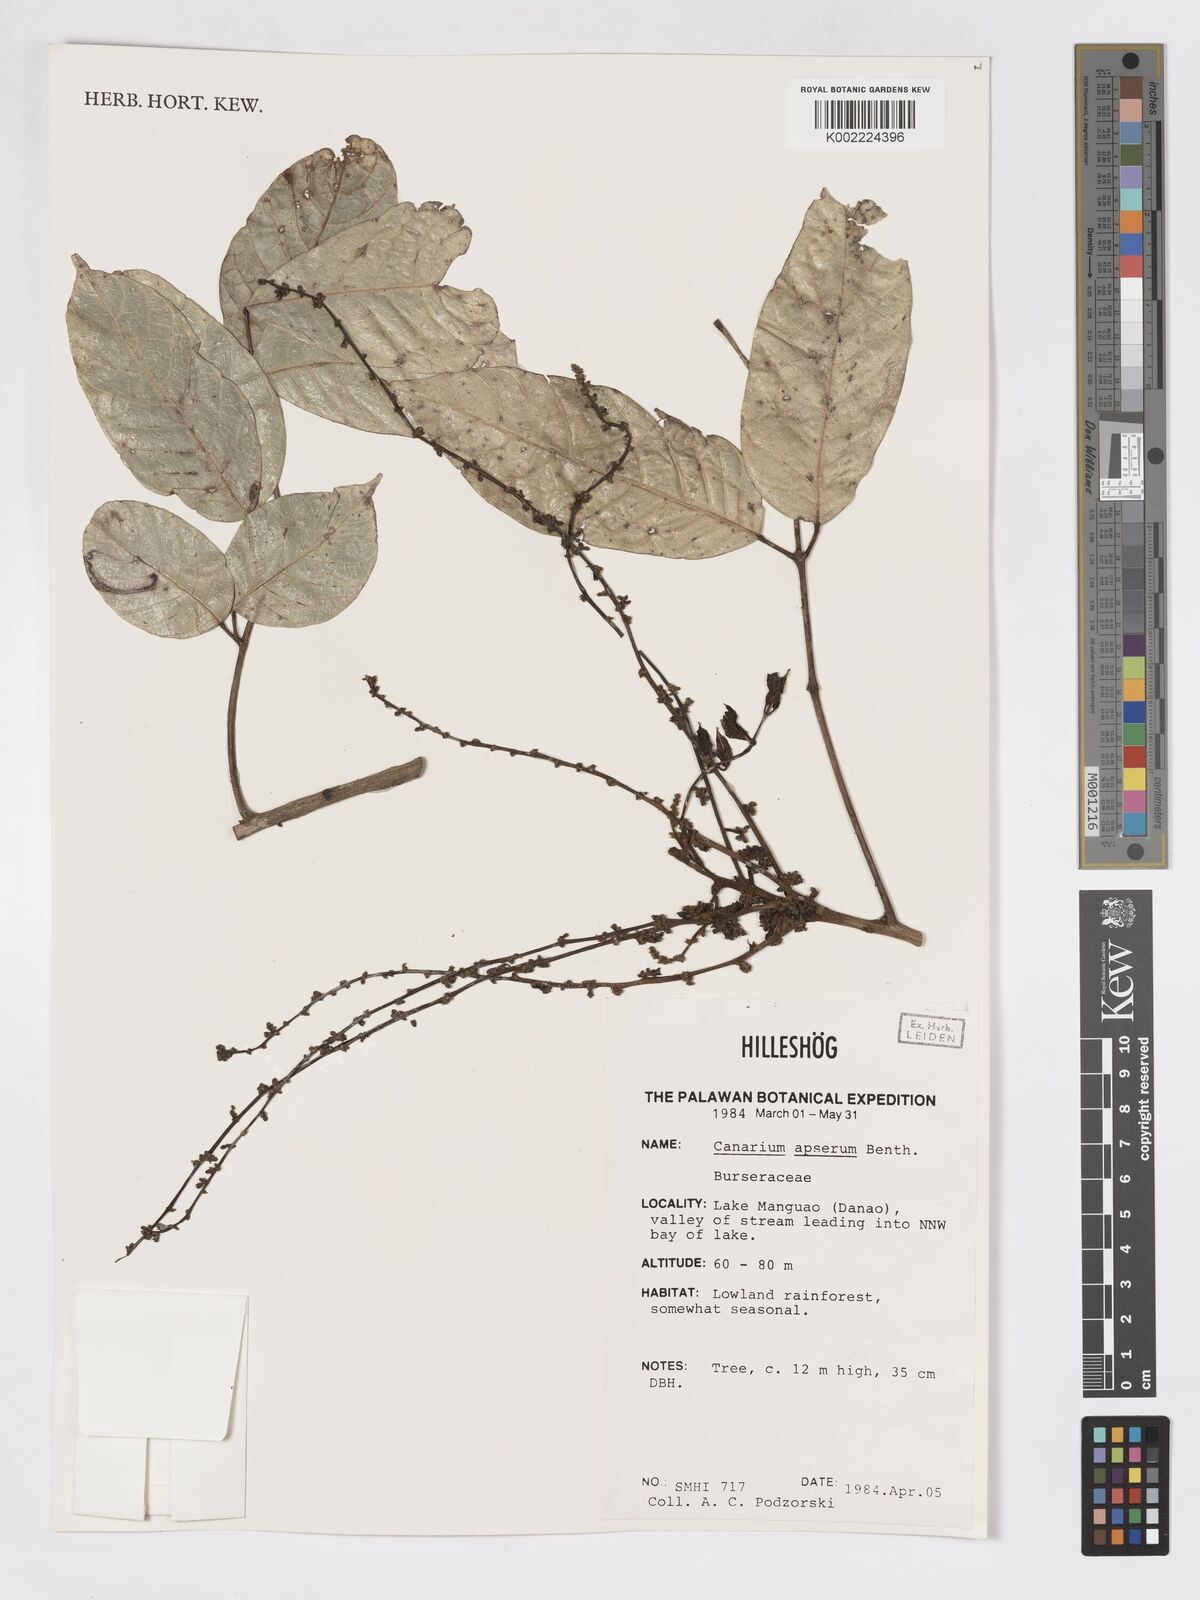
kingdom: Plantae
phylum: Tracheophyta
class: Magnoliopsida
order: Sapindales
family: Burseraceae
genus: Canarium
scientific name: Canarium asperum
